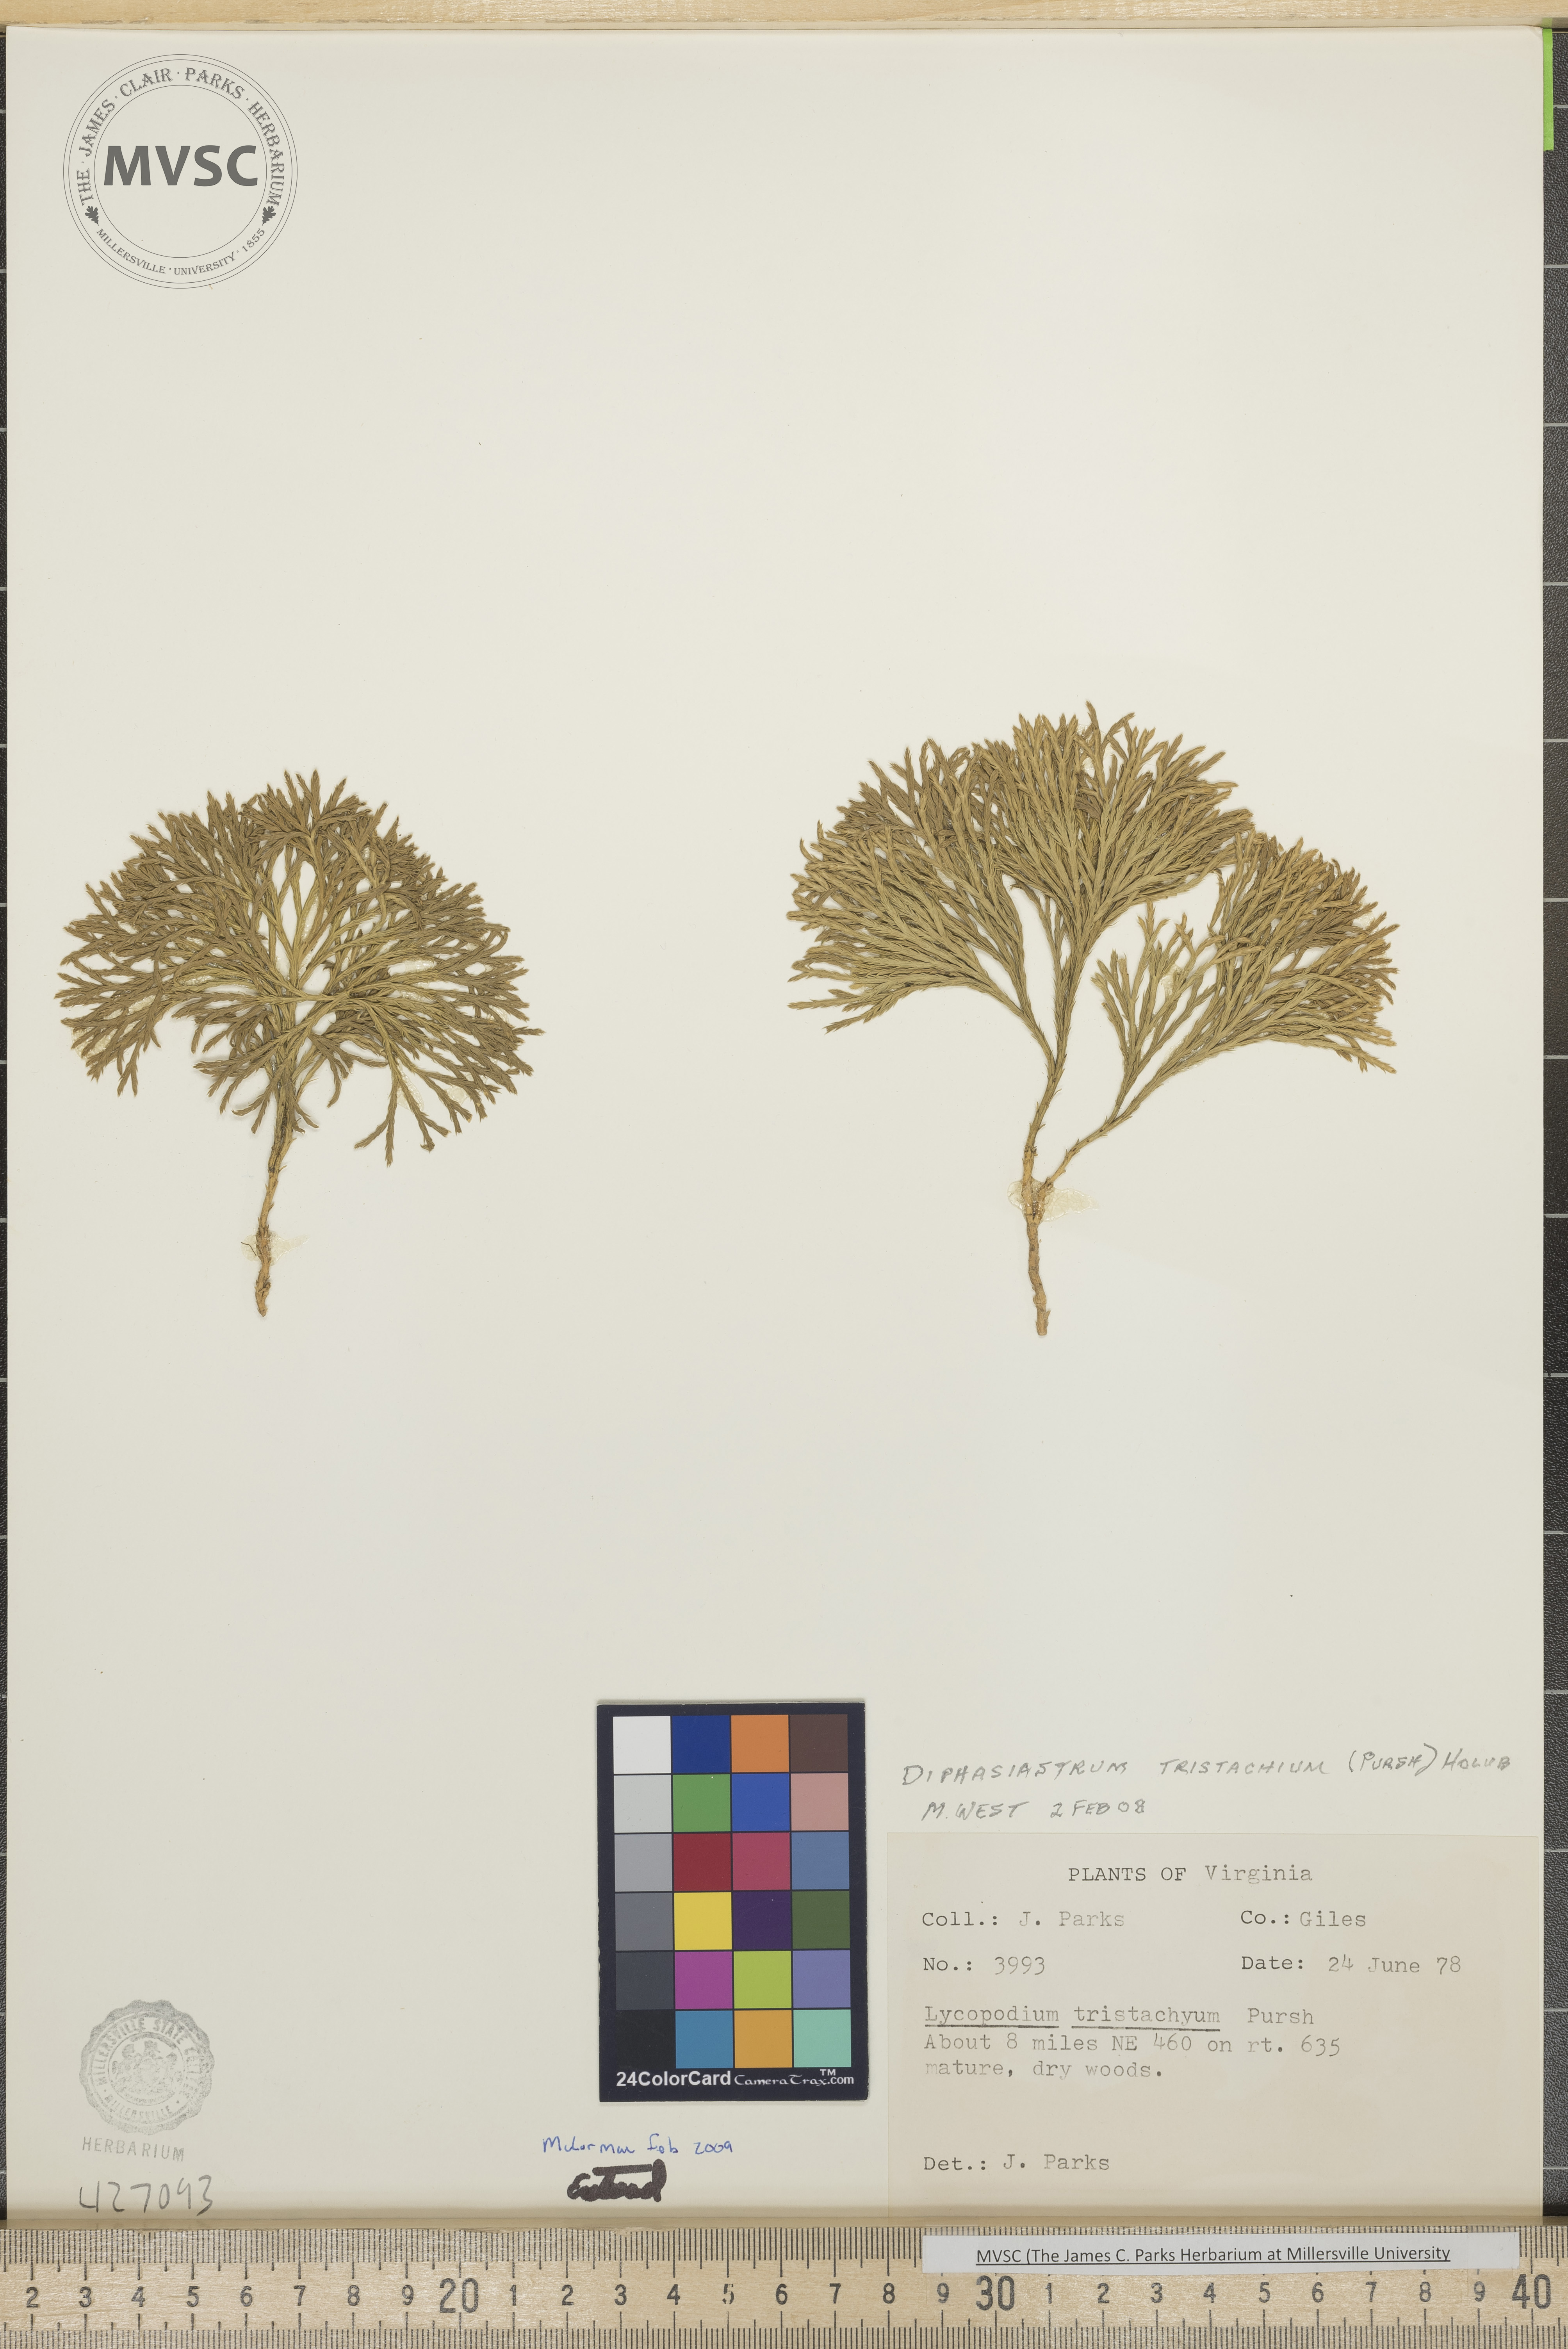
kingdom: Plantae
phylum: Tracheophyta
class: Lycopodiopsida
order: Lycopodiales
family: Lycopodiaceae
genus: Diphasiastrum
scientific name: Diphasiastrum tristachyum
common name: Blue ground-cedar
